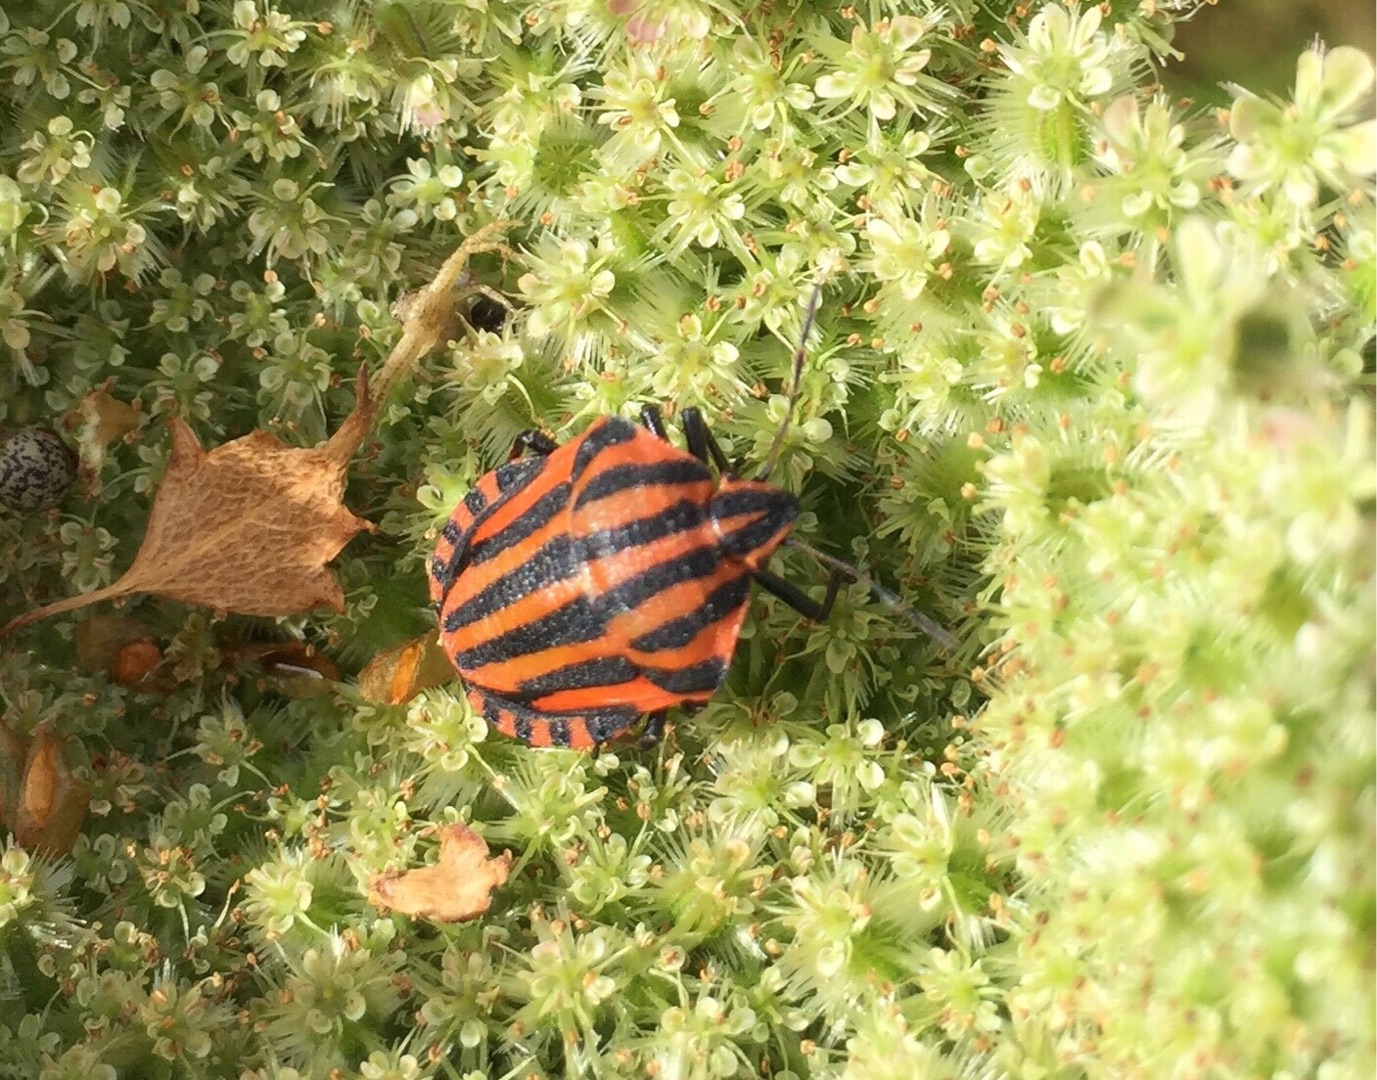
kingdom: Animalia
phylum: Arthropoda
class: Insecta
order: Hemiptera
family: Pentatomidae
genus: Graphosoma
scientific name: Graphosoma italicum
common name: Stribetæge
